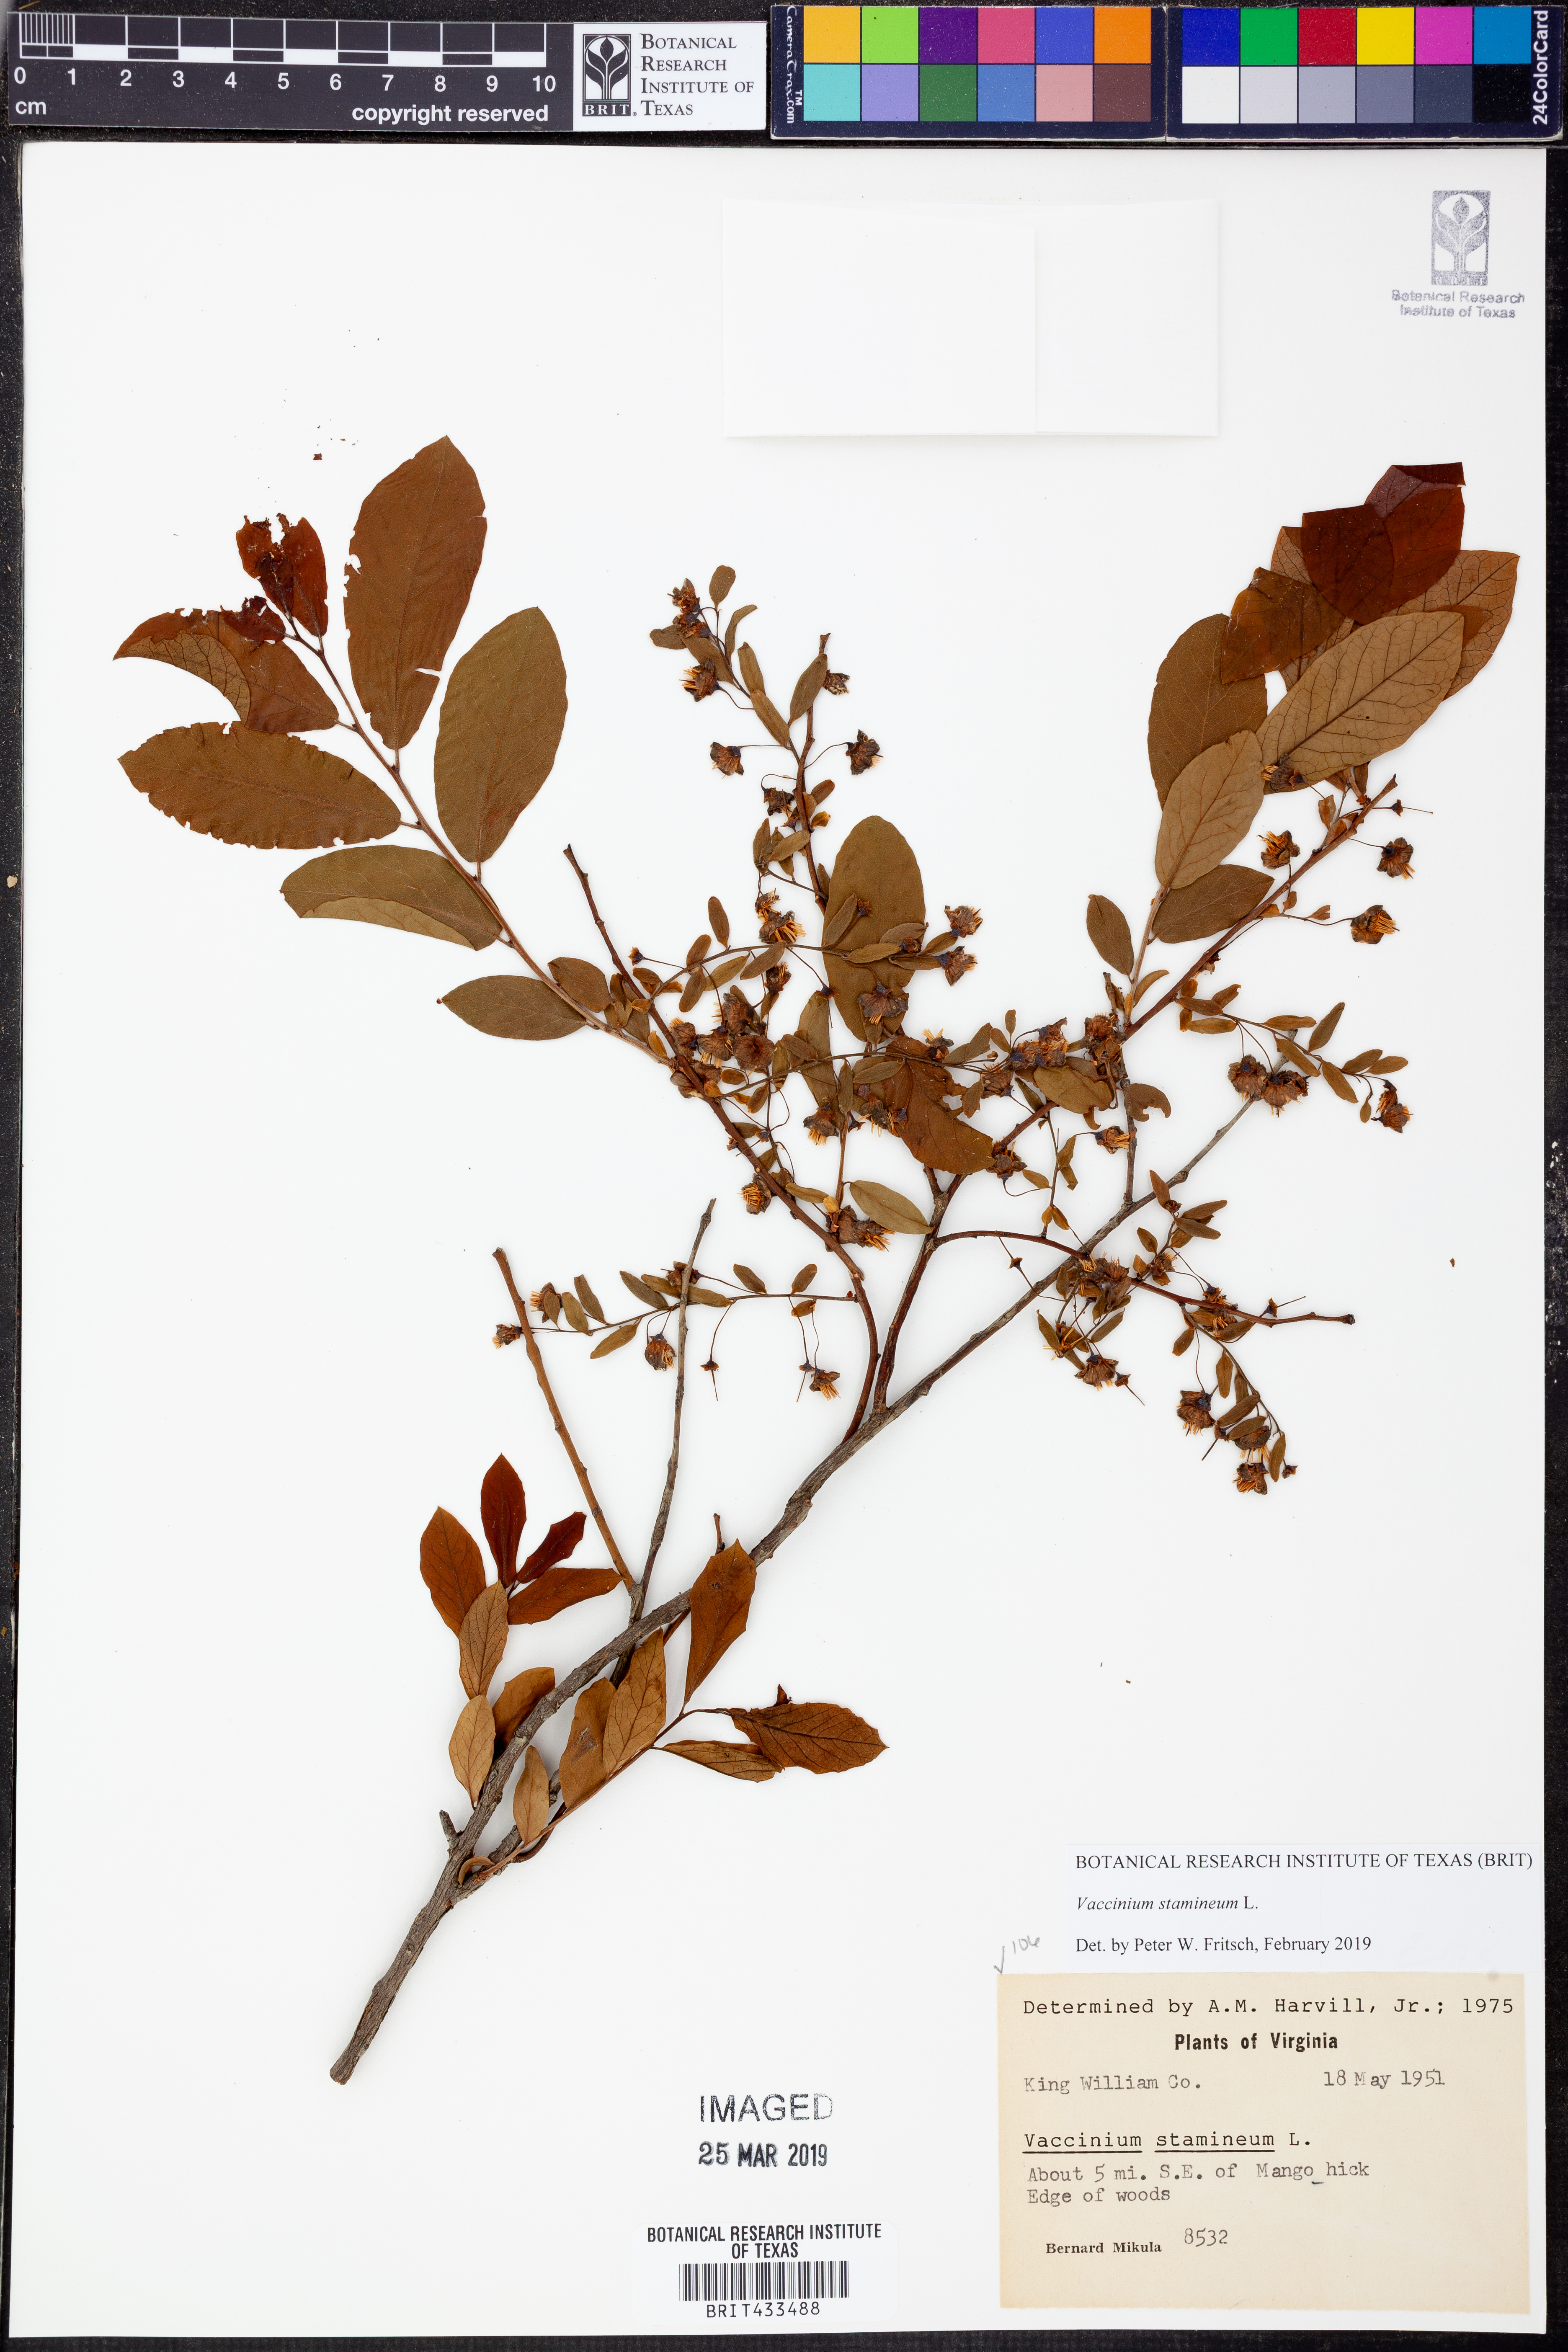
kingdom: Plantae
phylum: Tracheophyta
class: Magnoliopsida
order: Ericales
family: Ericaceae
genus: Vaccinium
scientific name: Vaccinium stamineum
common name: Deerberry
